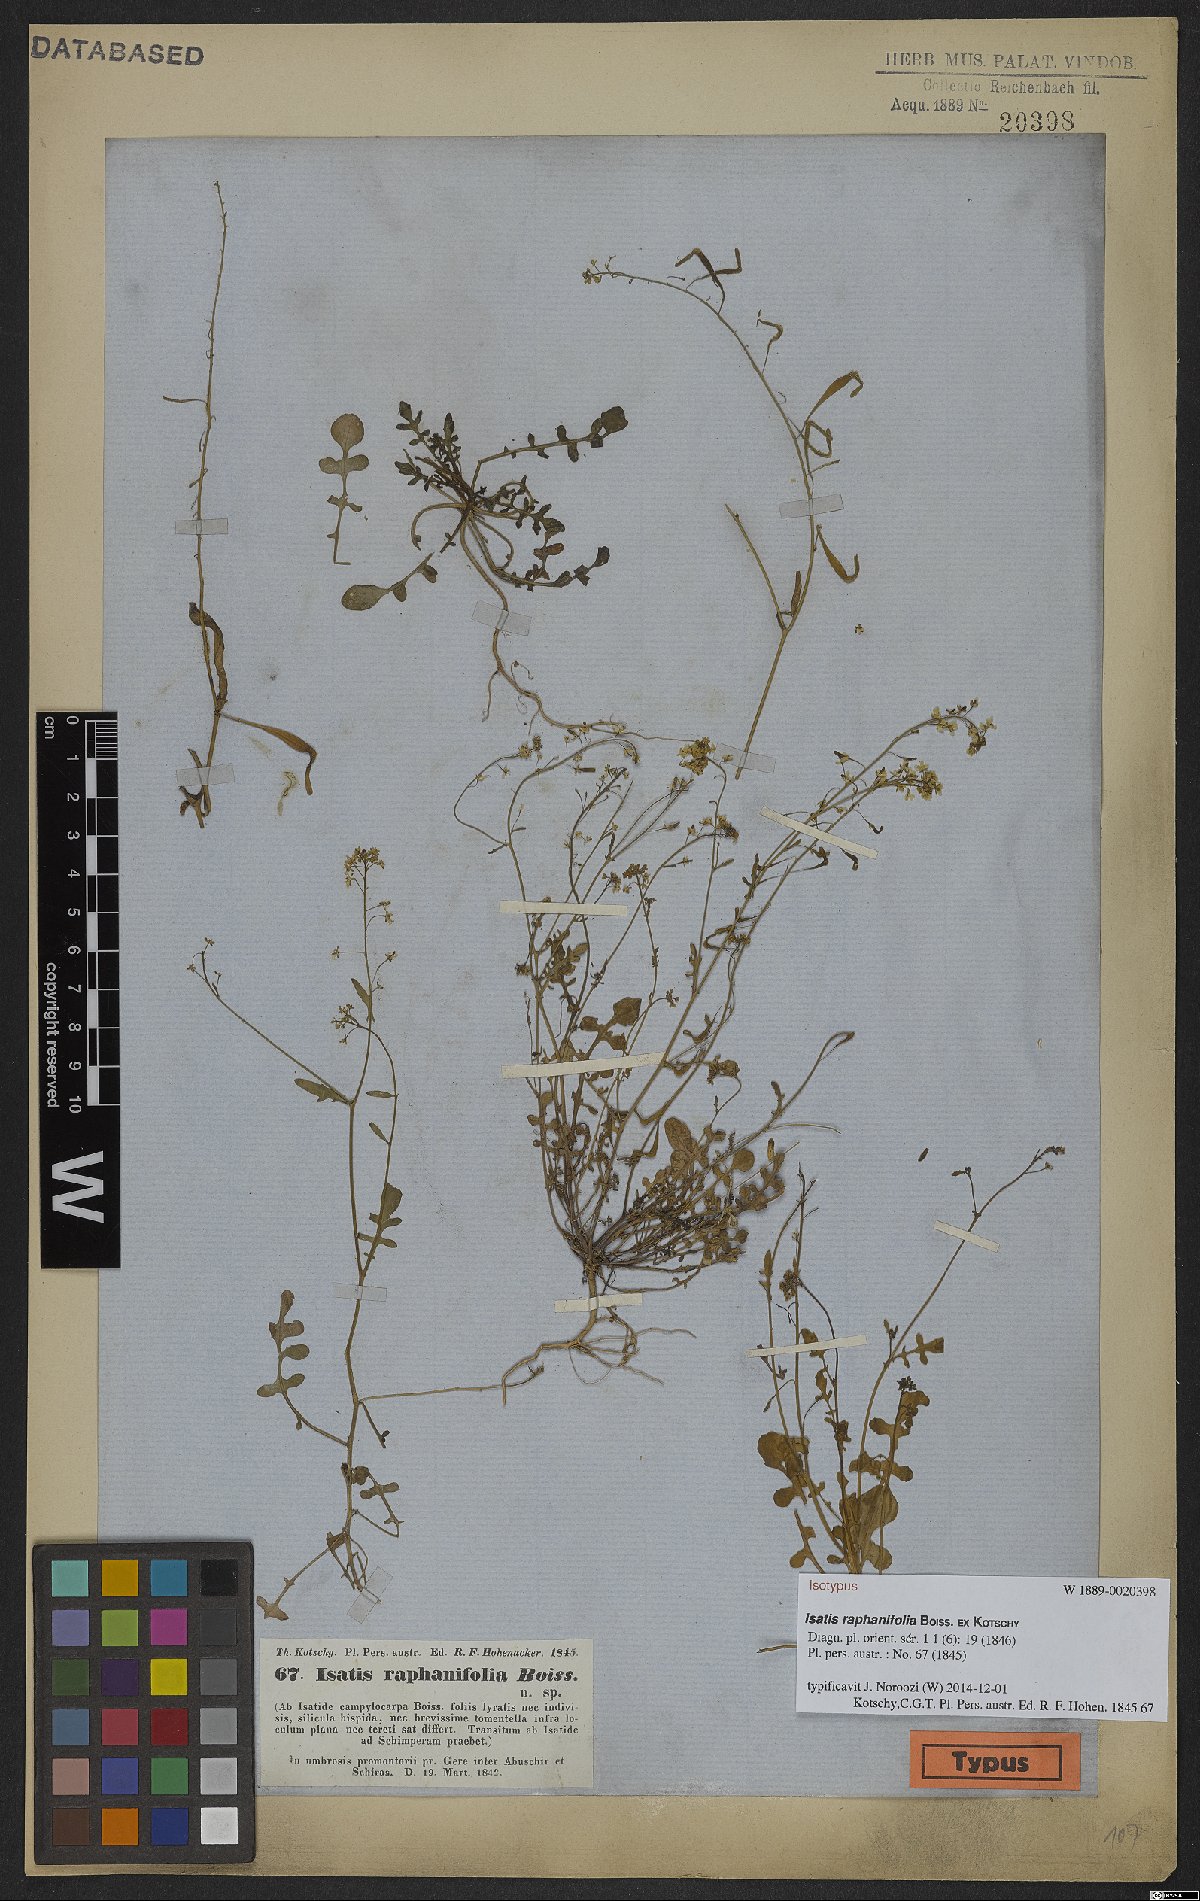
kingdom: Plantae
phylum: Tracheophyta
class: Magnoliopsida
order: Brassicales
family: Brassicaceae
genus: Isatis
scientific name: Isatis raphanifolia
